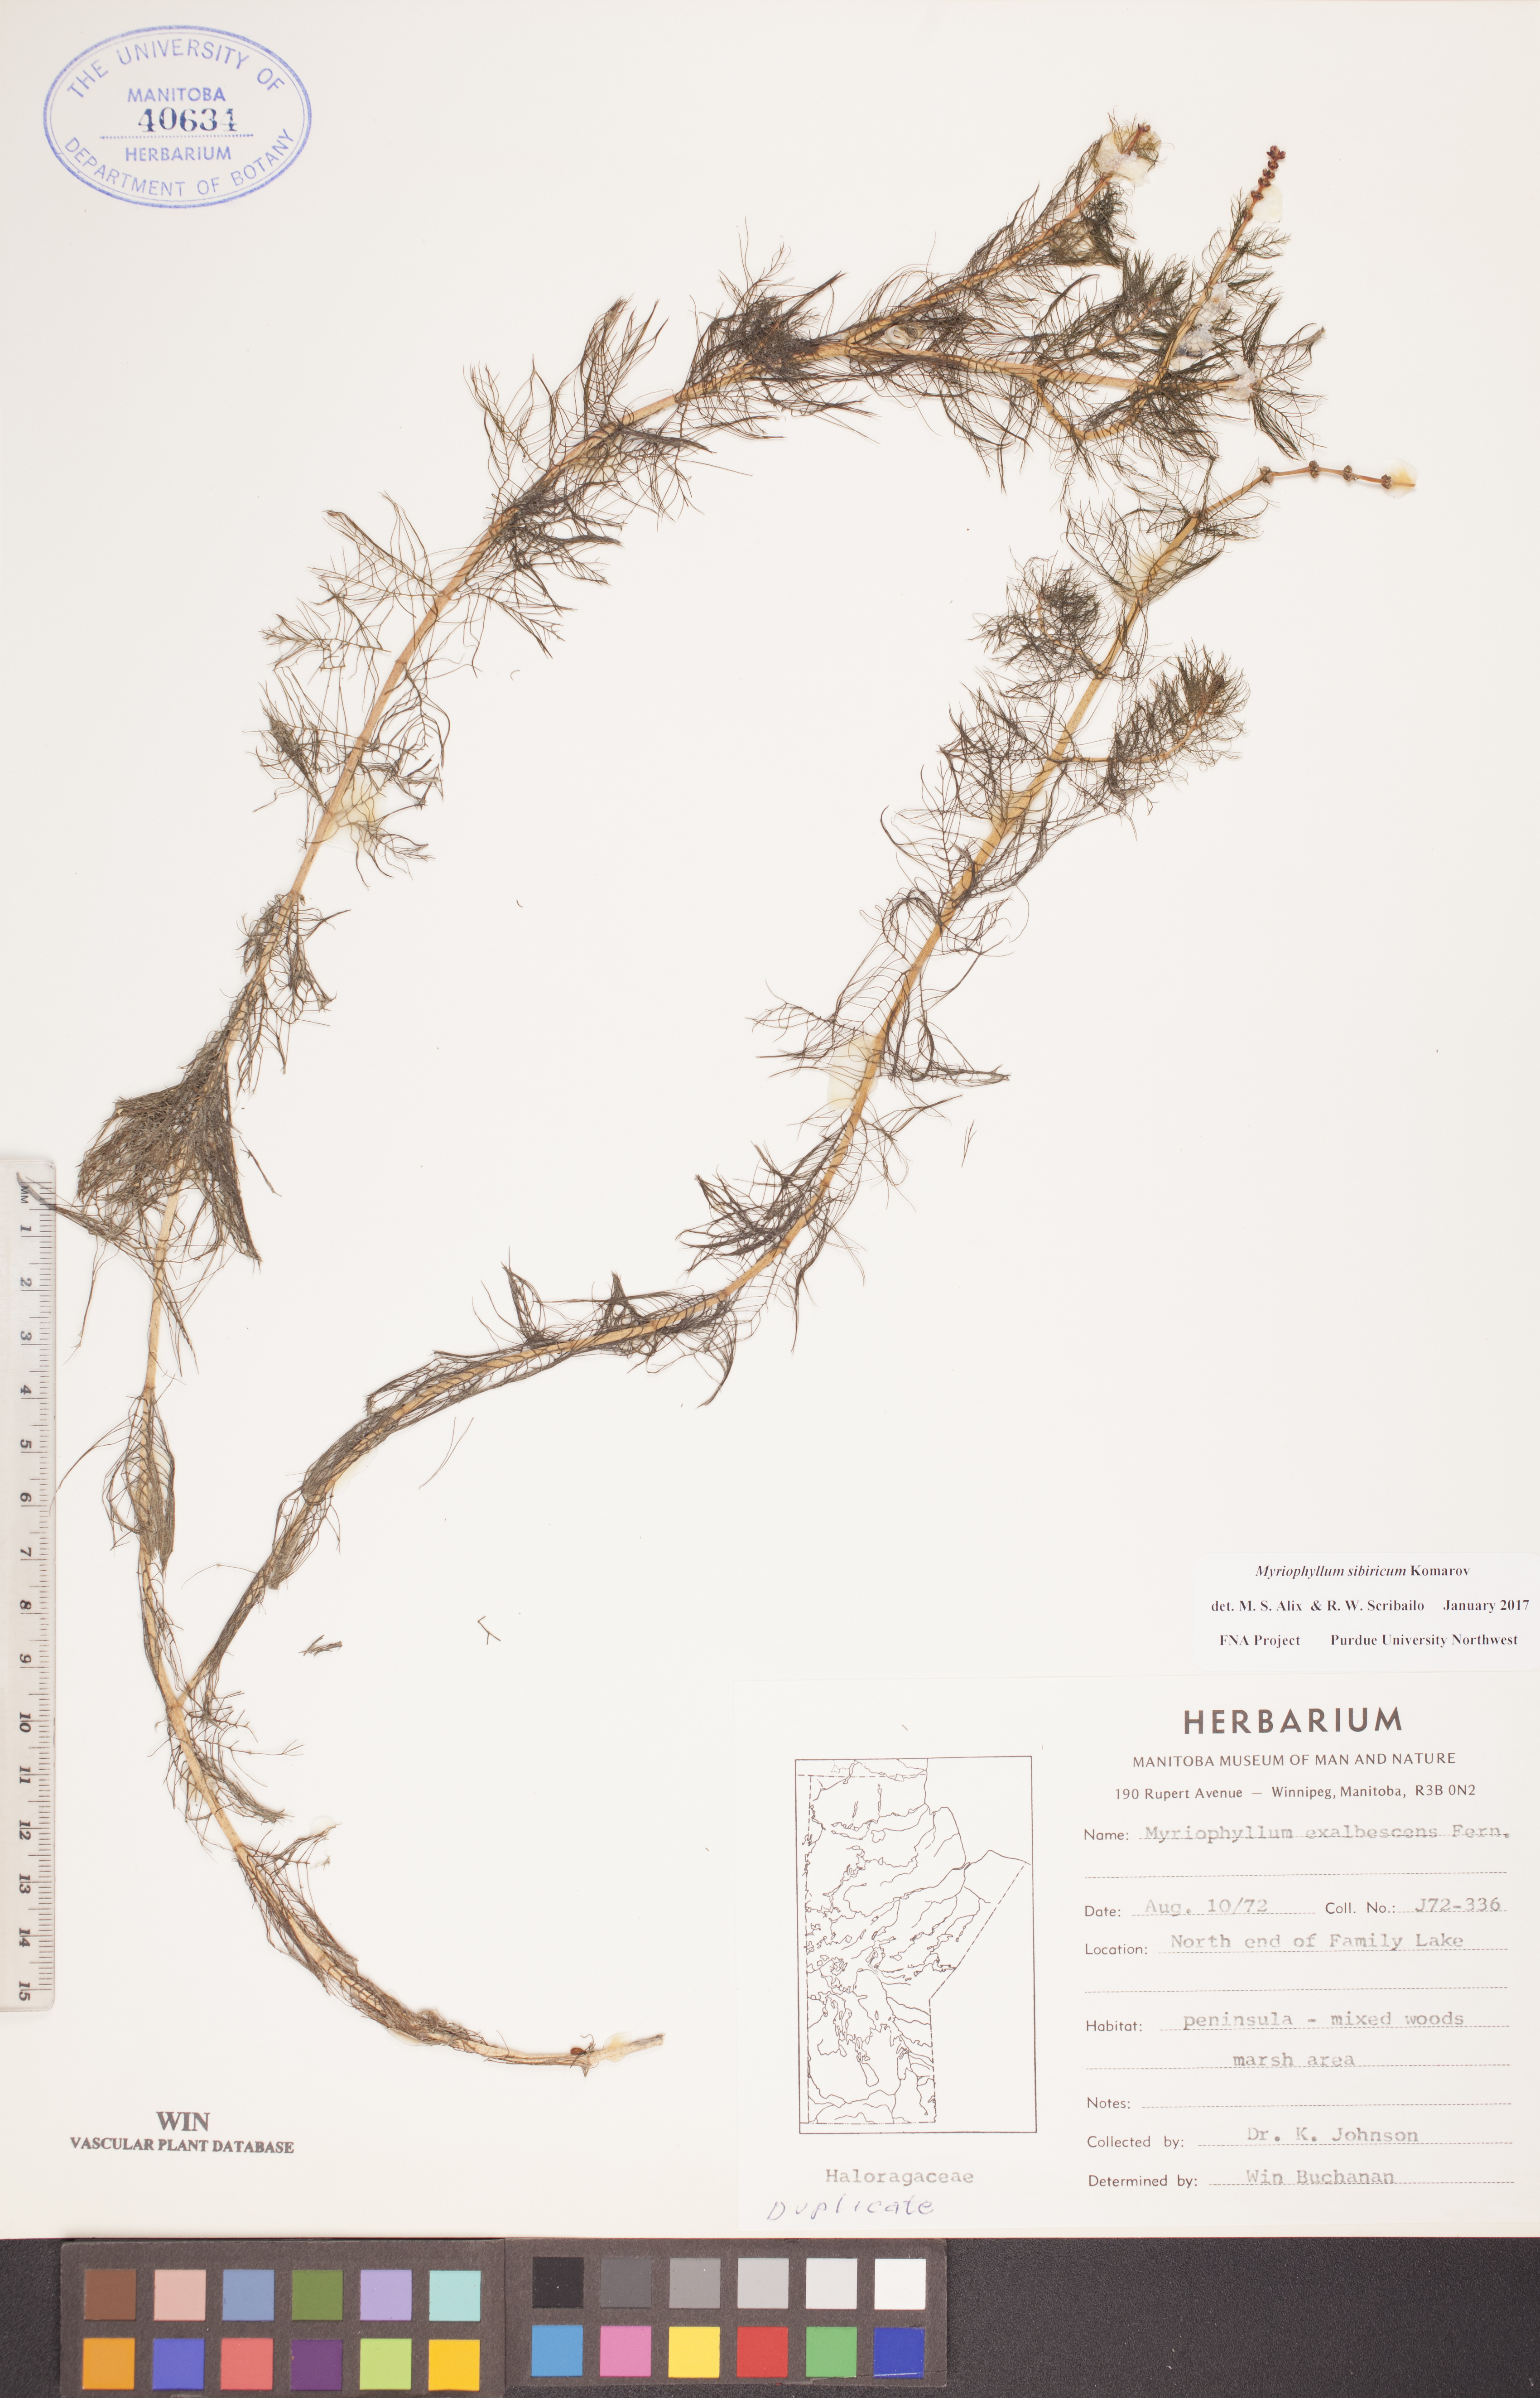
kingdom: Plantae
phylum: Tracheophyta
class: Magnoliopsida
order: Saxifragales
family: Haloragaceae
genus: Myriophyllum
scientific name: Myriophyllum sibiricum
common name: Siberian water-milfoil
